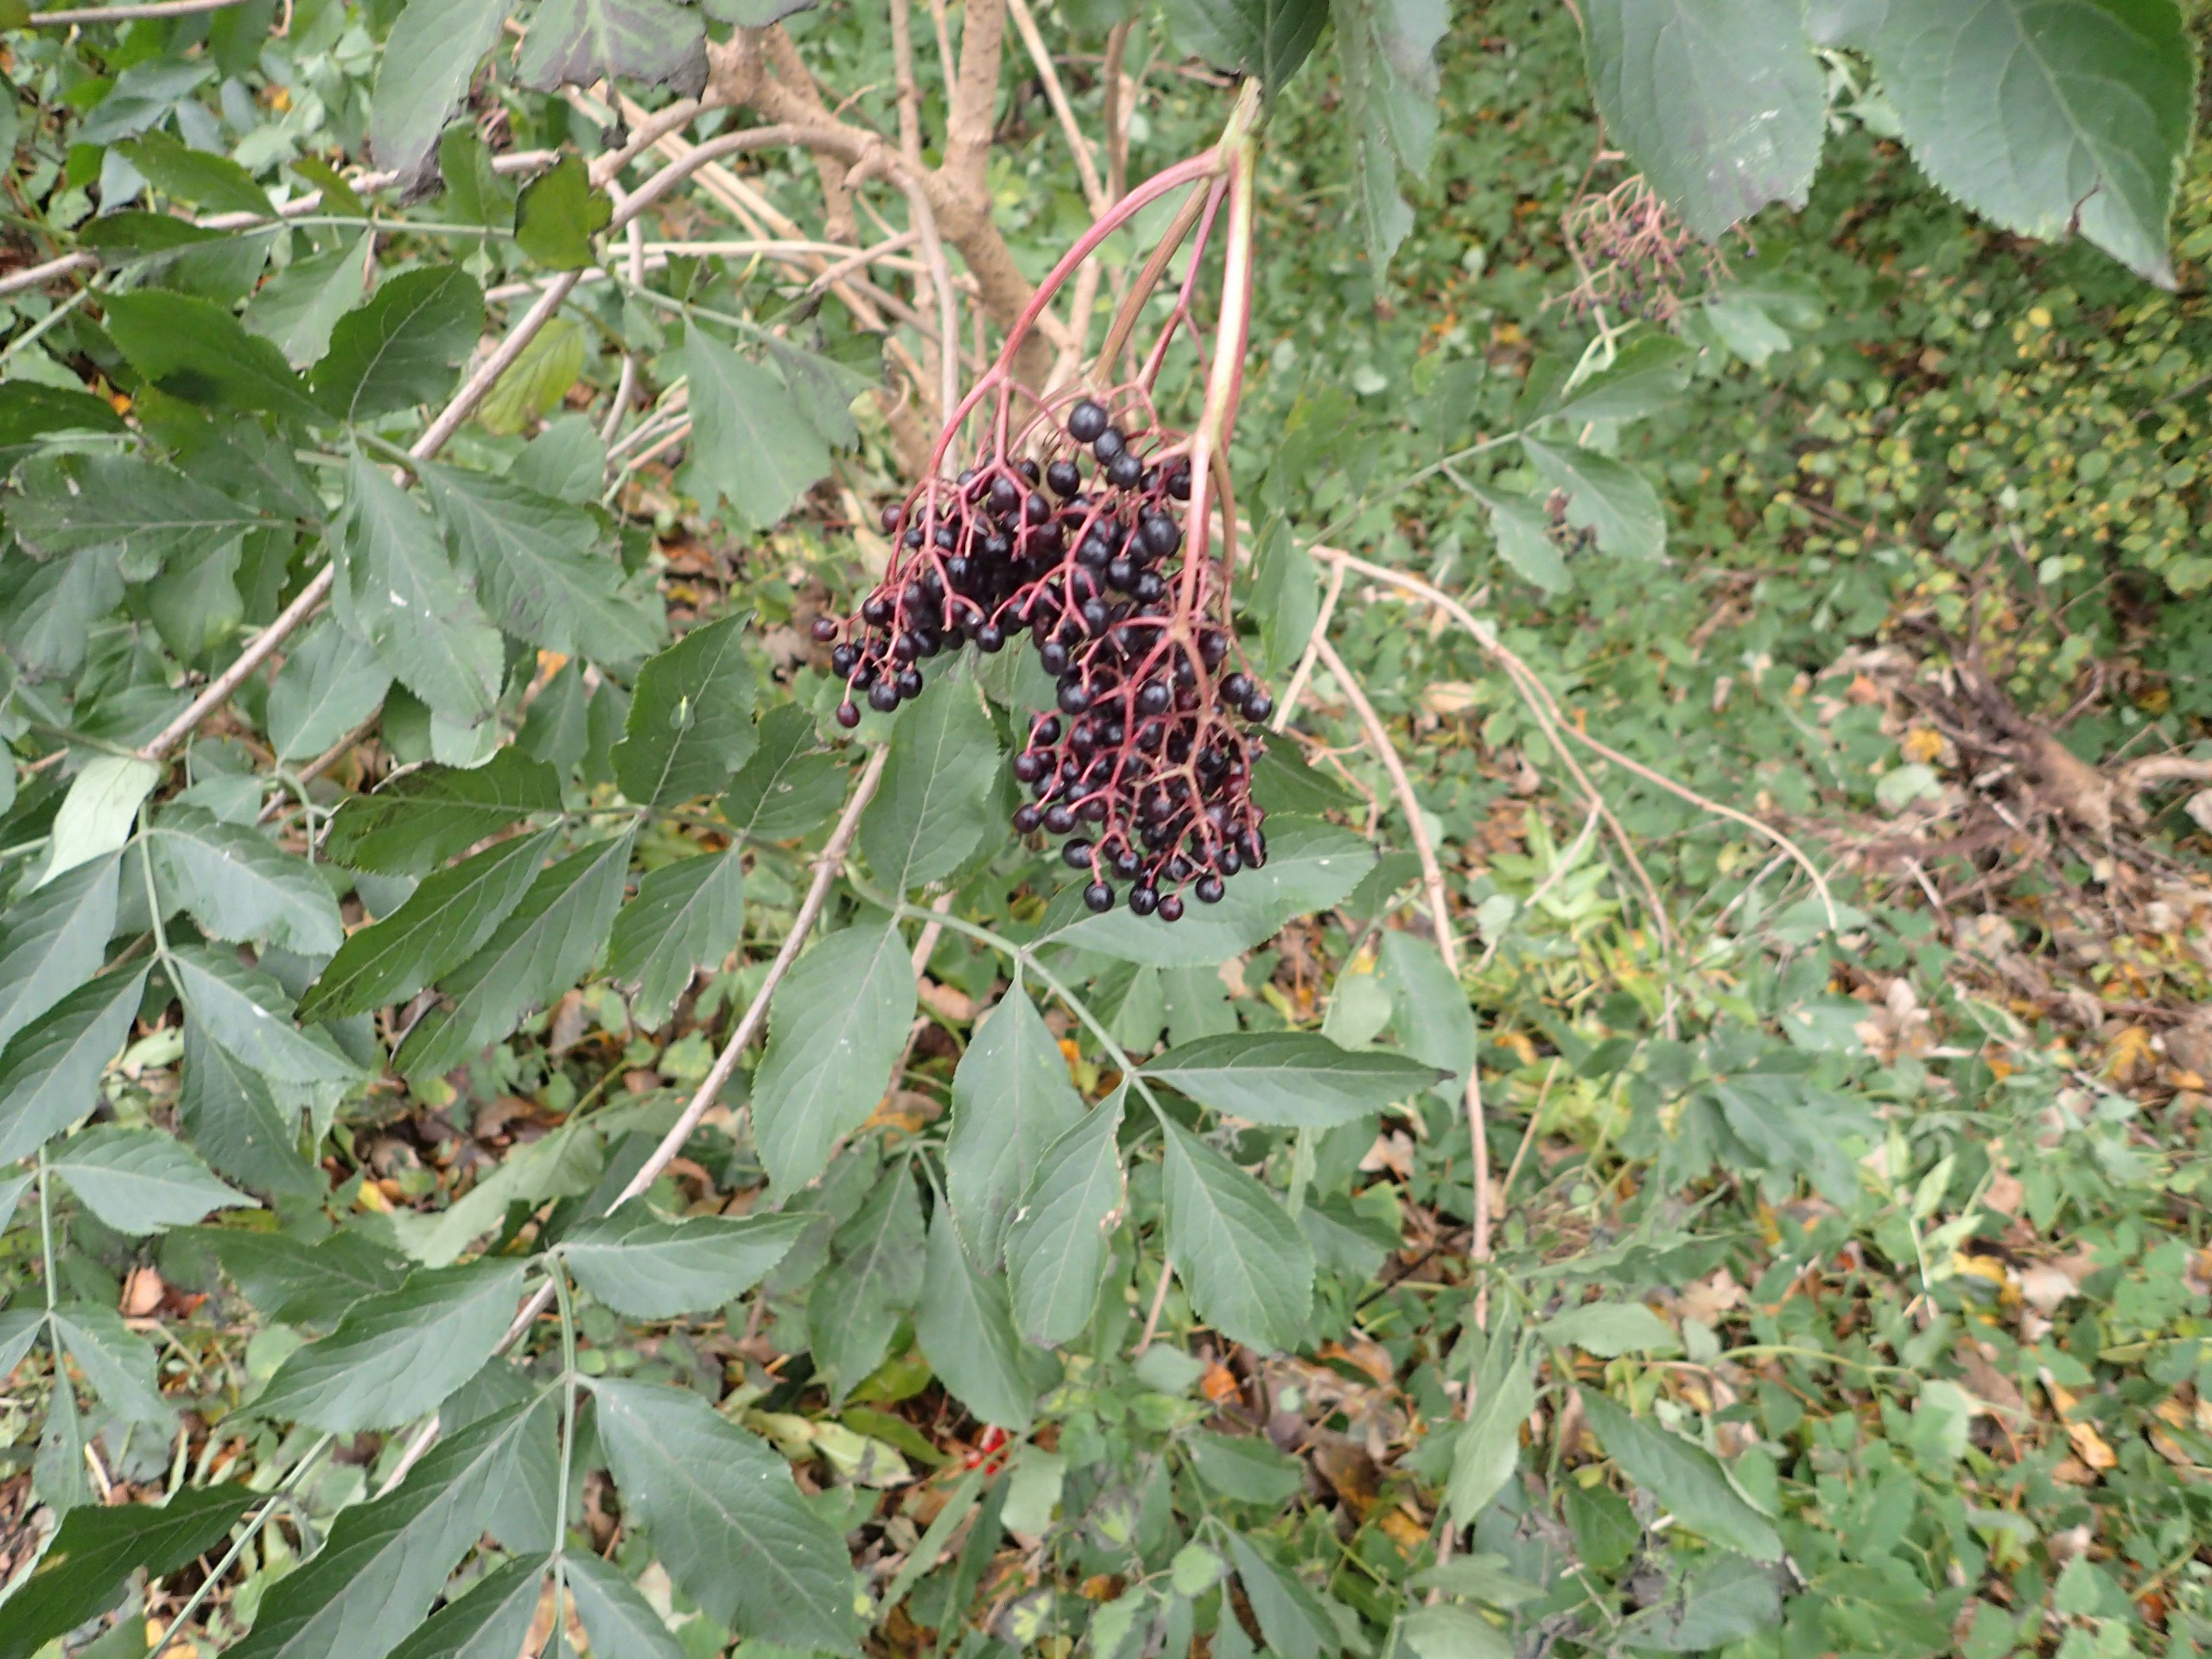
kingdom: Plantae
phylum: Tracheophyta
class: Magnoliopsida
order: Dipsacales
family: Viburnaceae
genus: Sambucus
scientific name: Sambucus nigra
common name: Almindelig hyld
